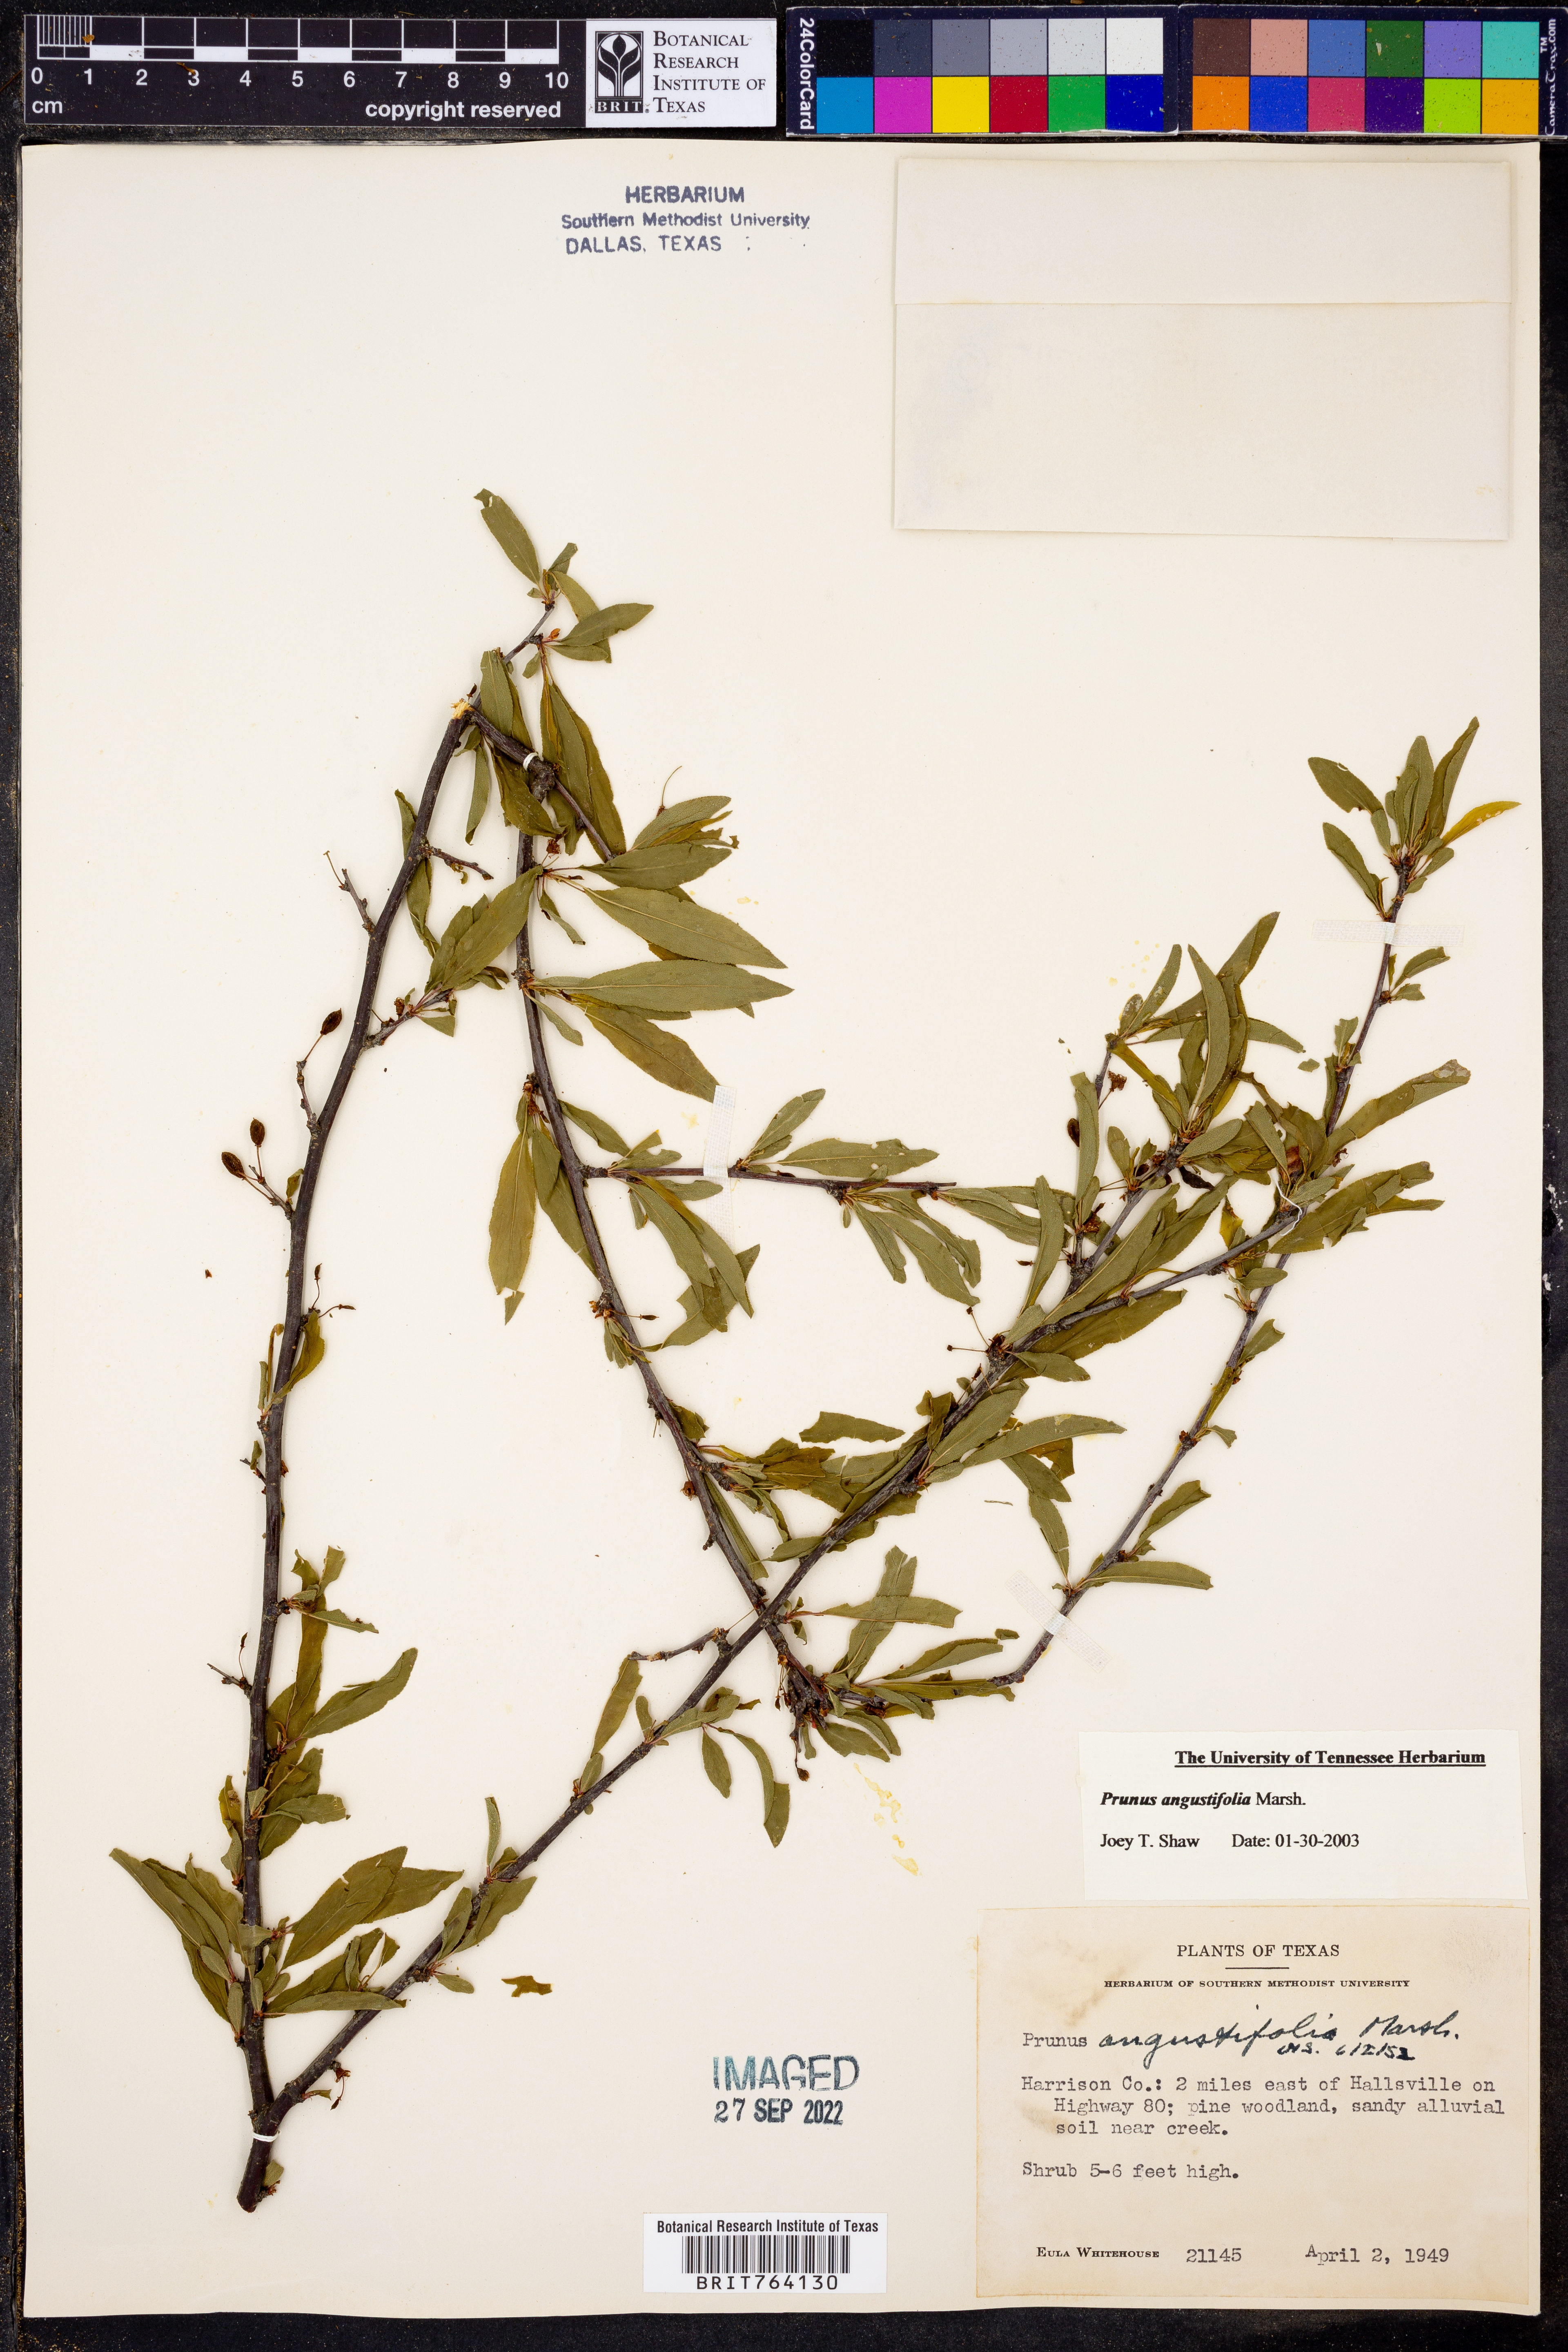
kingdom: Plantae
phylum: Tracheophyta
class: Magnoliopsida
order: Rosales
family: Rosaceae
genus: Prunus
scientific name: Prunus angustifolia
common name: Cherokee plum
